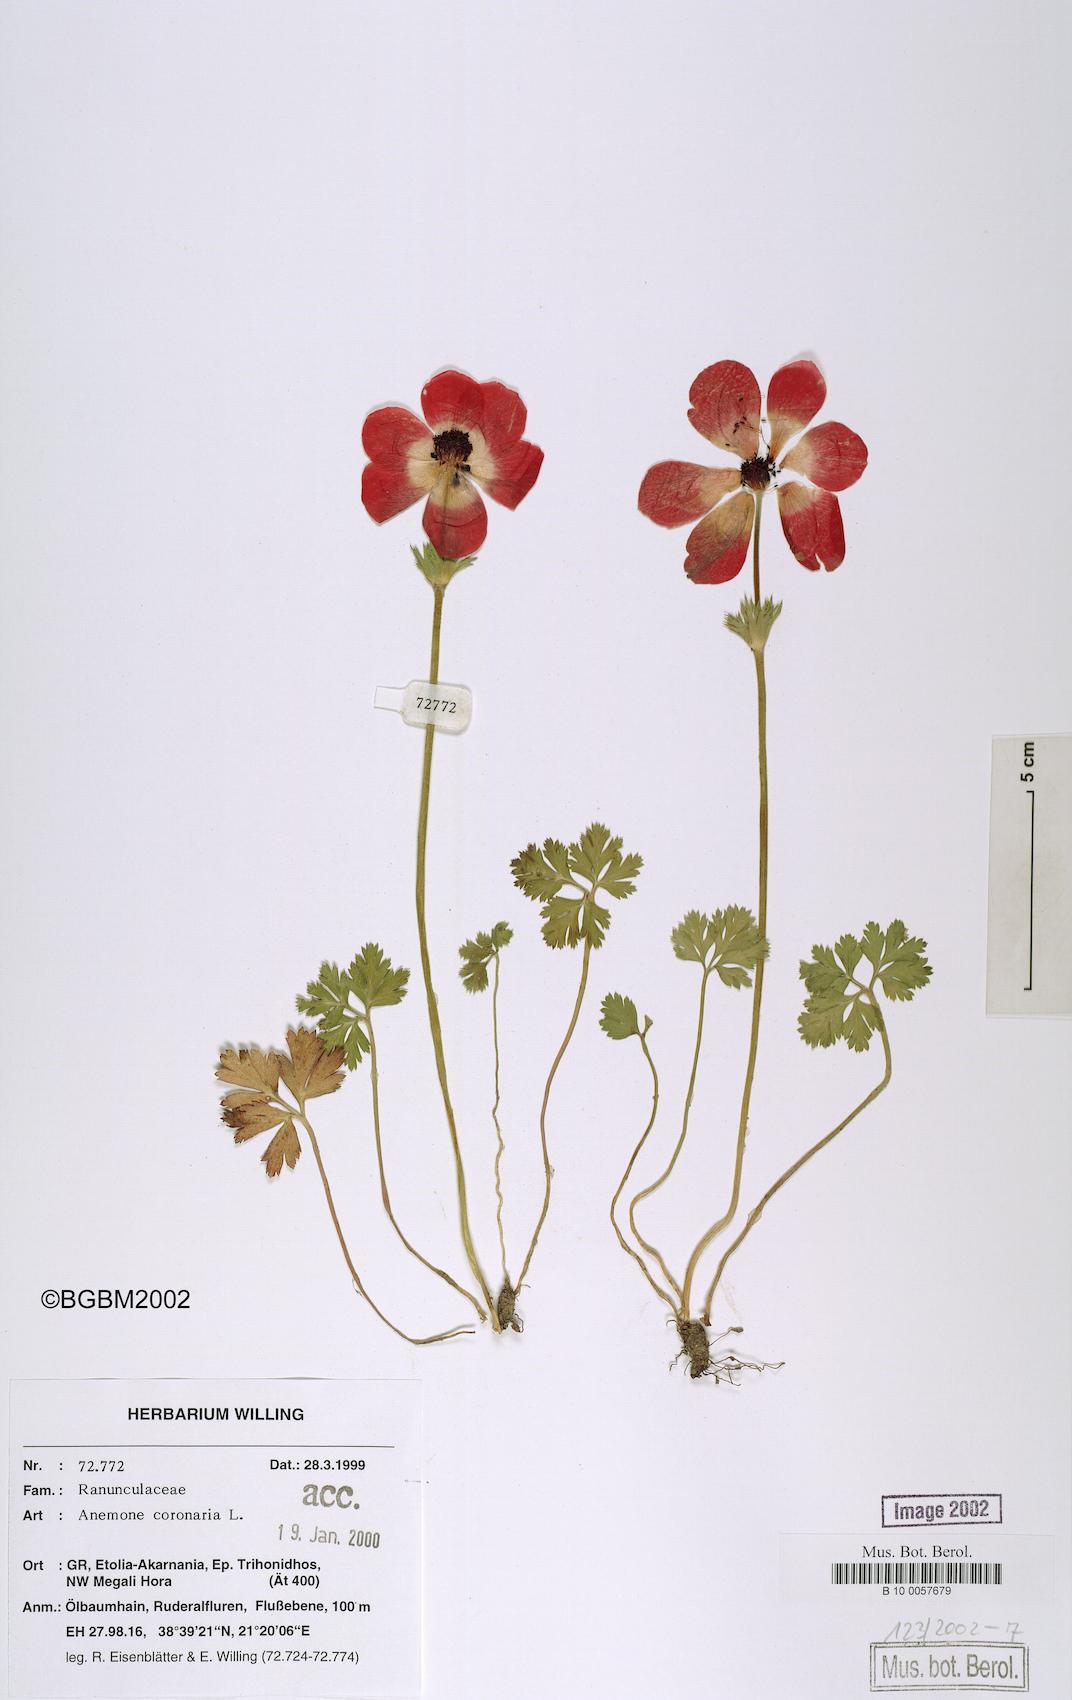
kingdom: Plantae
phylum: Tracheophyta
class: Magnoliopsida
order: Ranunculales
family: Ranunculaceae
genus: Anemone
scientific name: Anemone coronaria
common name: Poppy anemone
